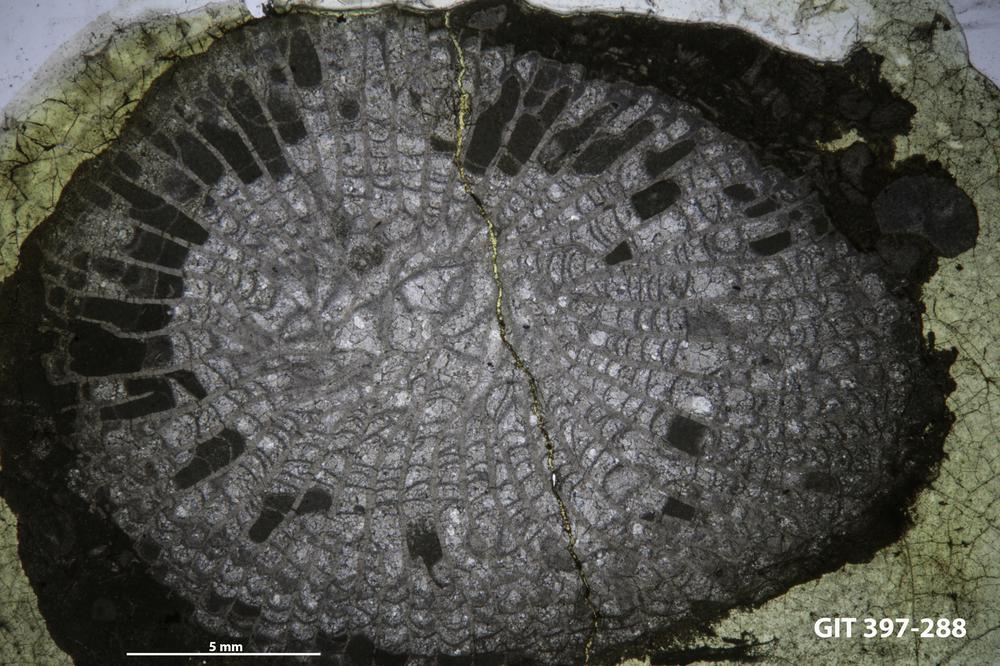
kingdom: Animalia
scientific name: Animalia
